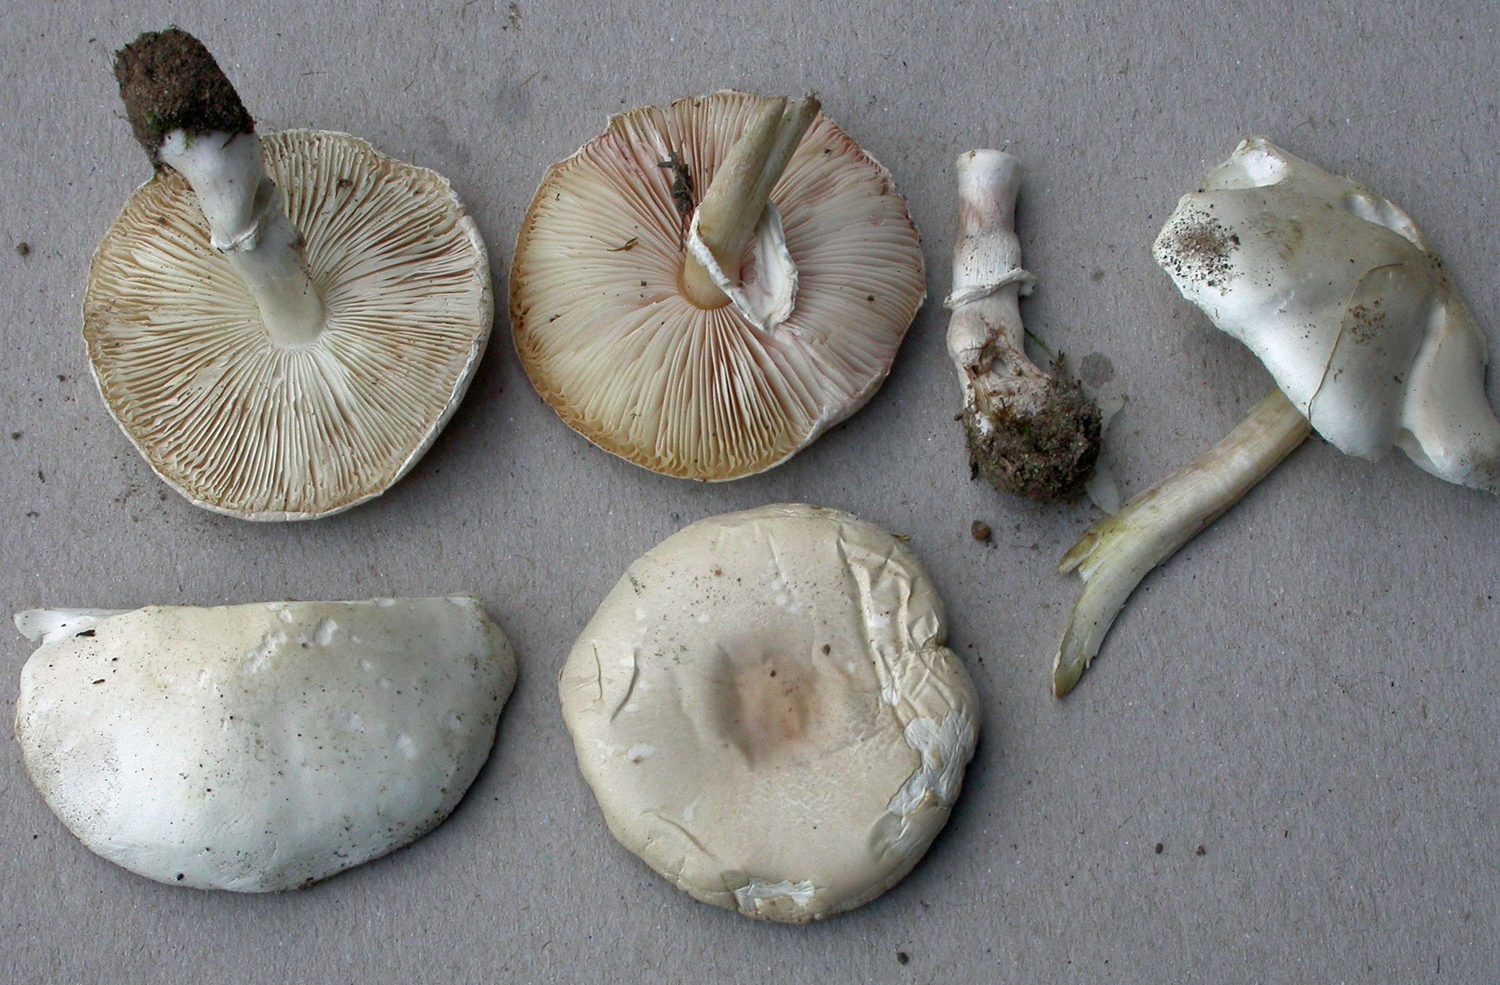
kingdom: Fungi
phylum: Basidiomycota
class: Agaricomycetes
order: Agaricales
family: Agaricaceae
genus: Leucoagaricus
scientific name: Leucoagaricus leucothites
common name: rosabladet silkehat
